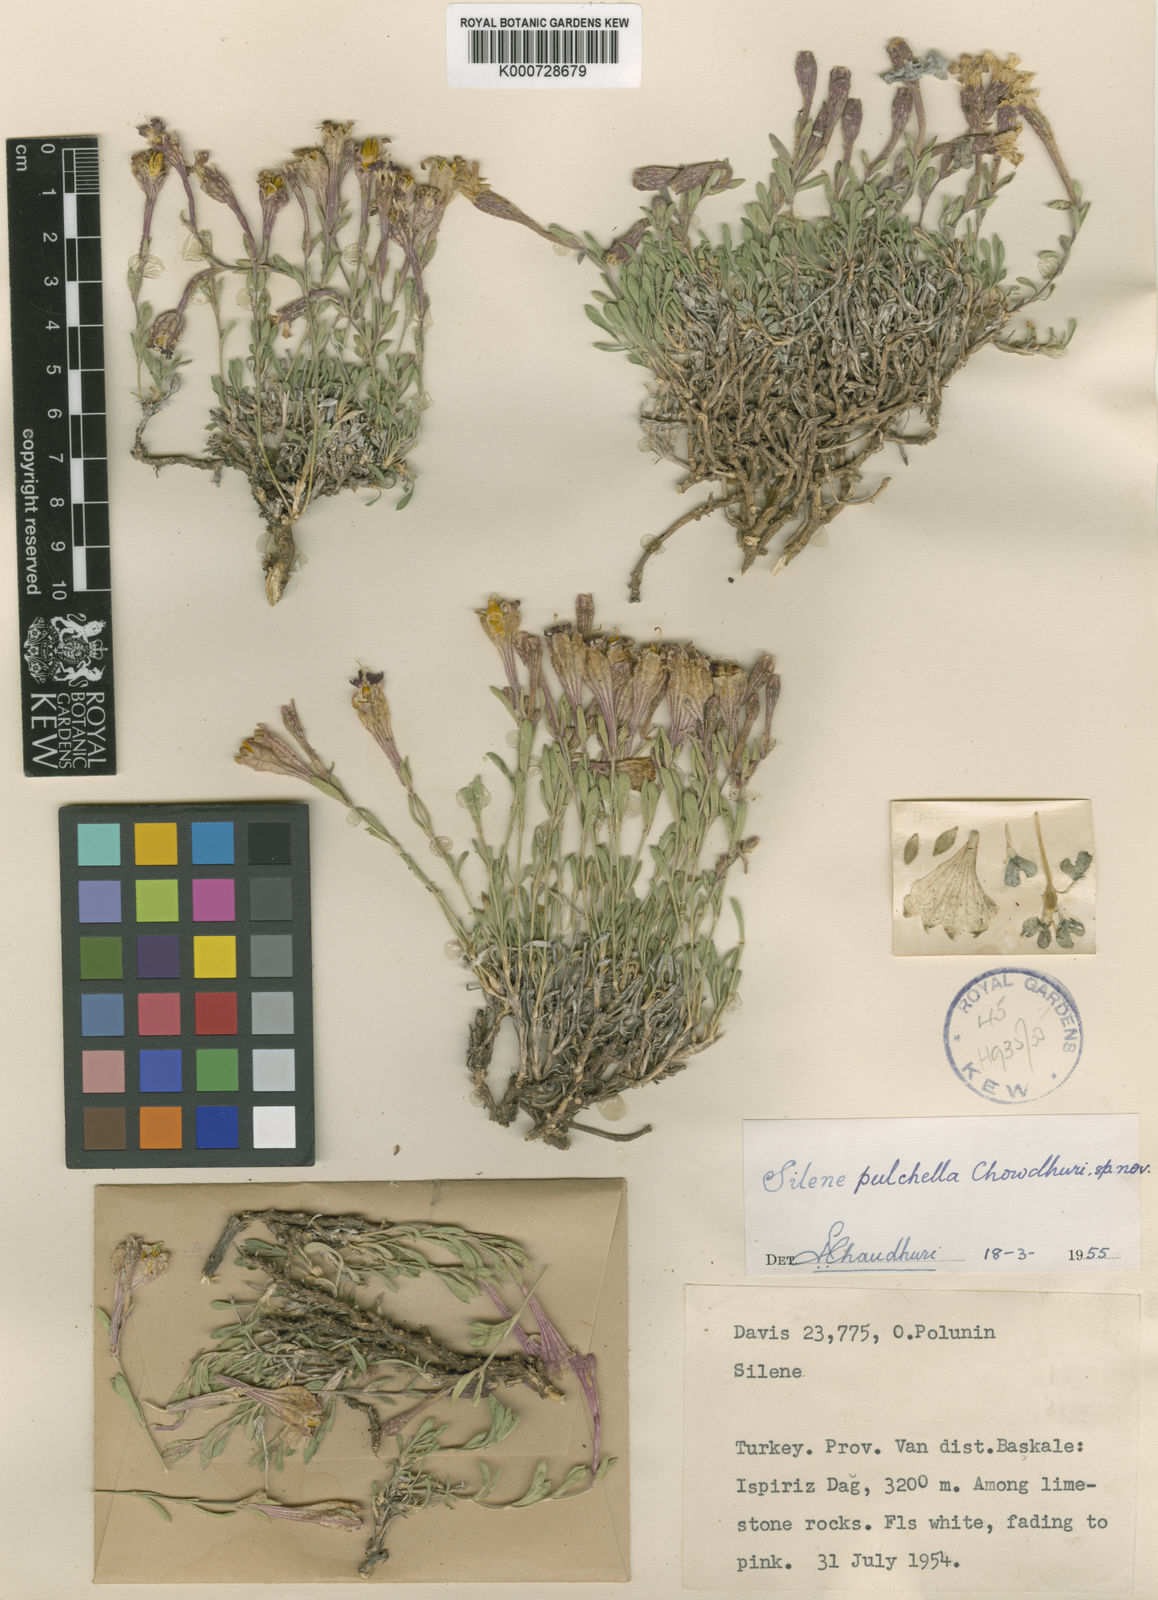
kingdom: Plantae
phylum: Tracheophyta
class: Magnoliopsida
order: Caryophyllales
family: Caryophyllaceae
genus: Silene
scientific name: Silene araratica
